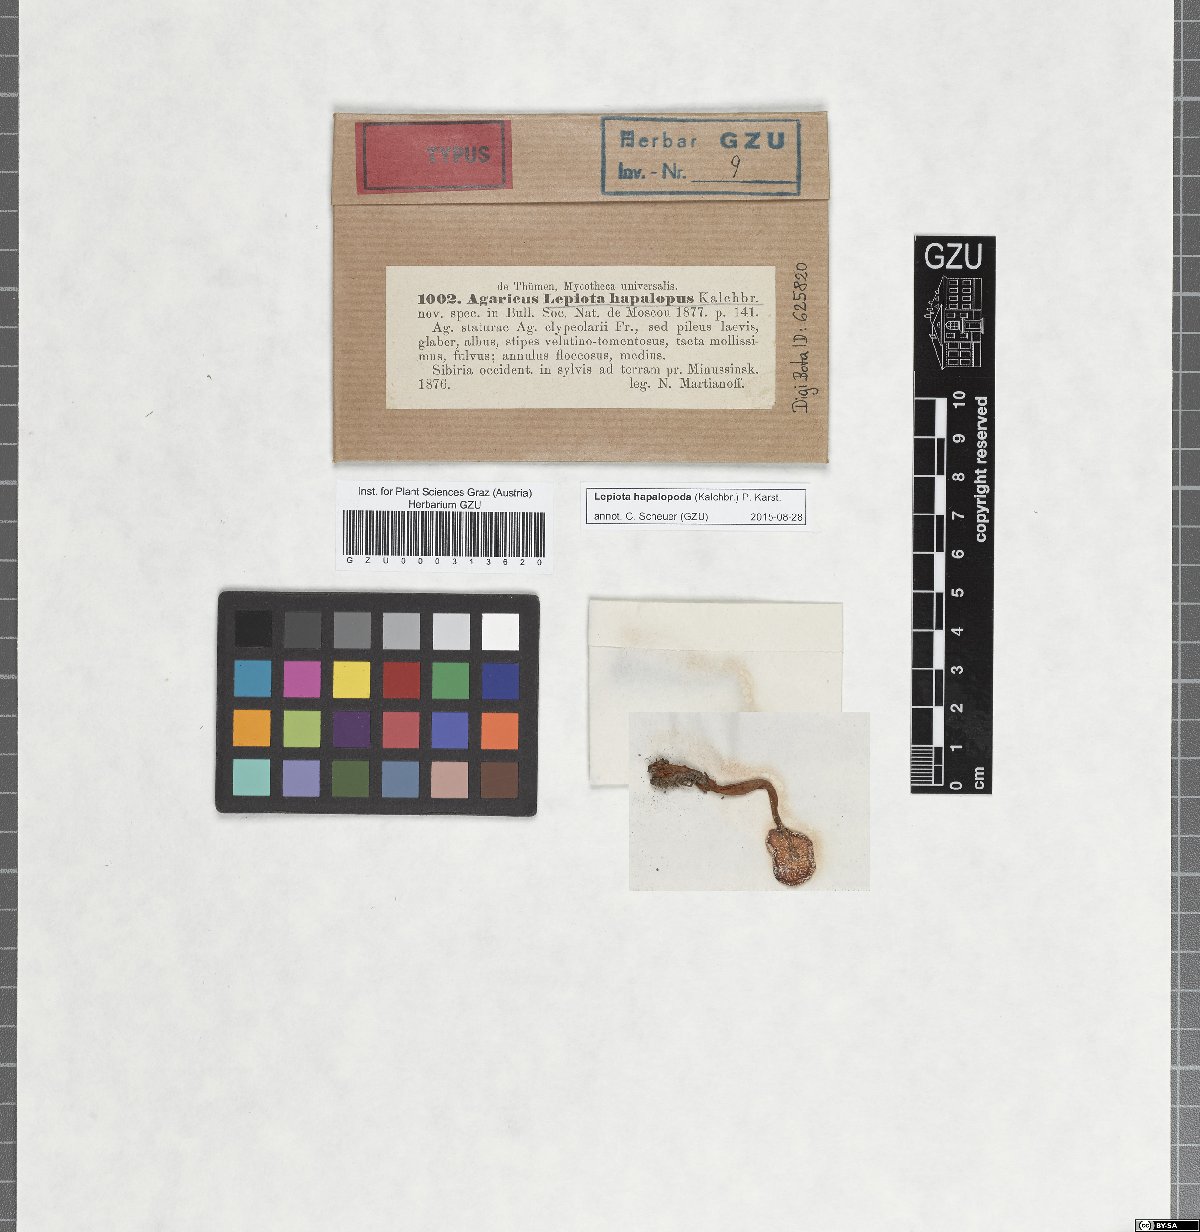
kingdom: Fungi
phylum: Basidiomycota
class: Agaricomycetes
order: Agaricales
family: Agaricaceae
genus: Agaricus
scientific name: Agaricus
